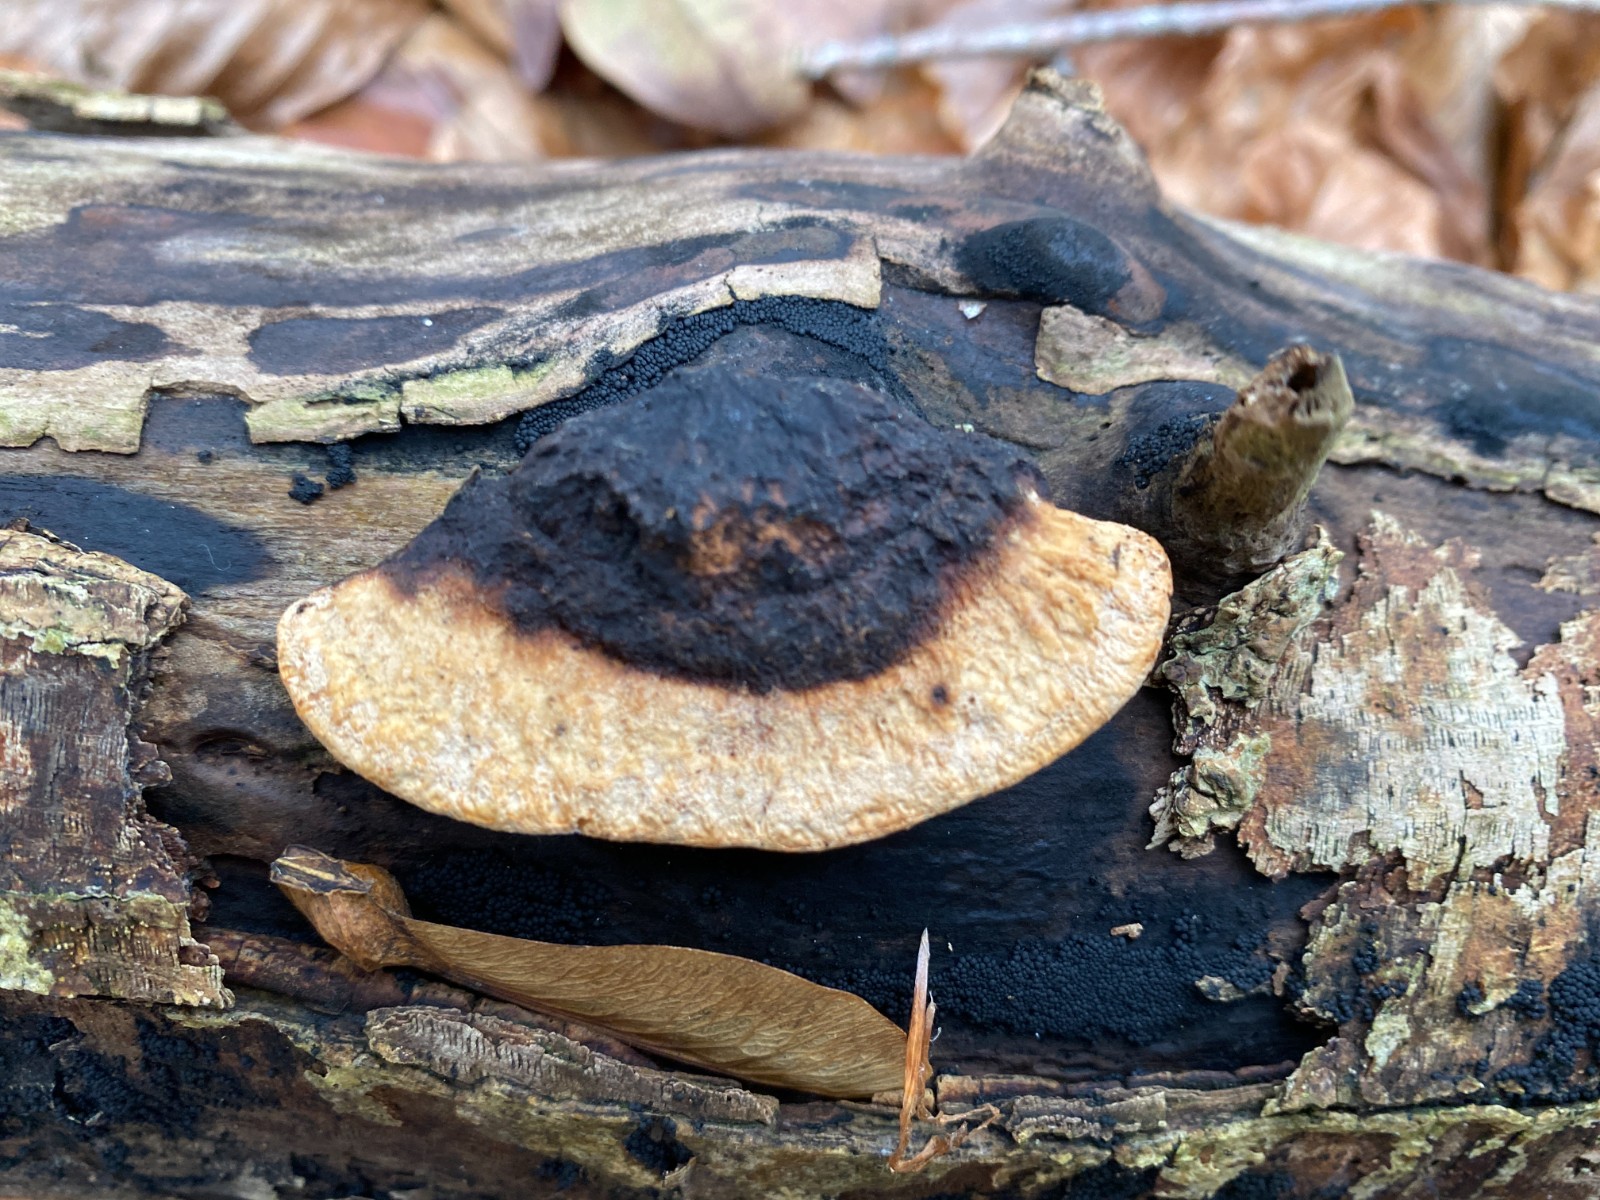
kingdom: Fungi
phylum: Basidiomycota
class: Agaricomycetes
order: Polyporales
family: Incrustoporiaceae
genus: Skeletocutis
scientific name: Skeletocutis nemoralis
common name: stor krystalporesvamp
